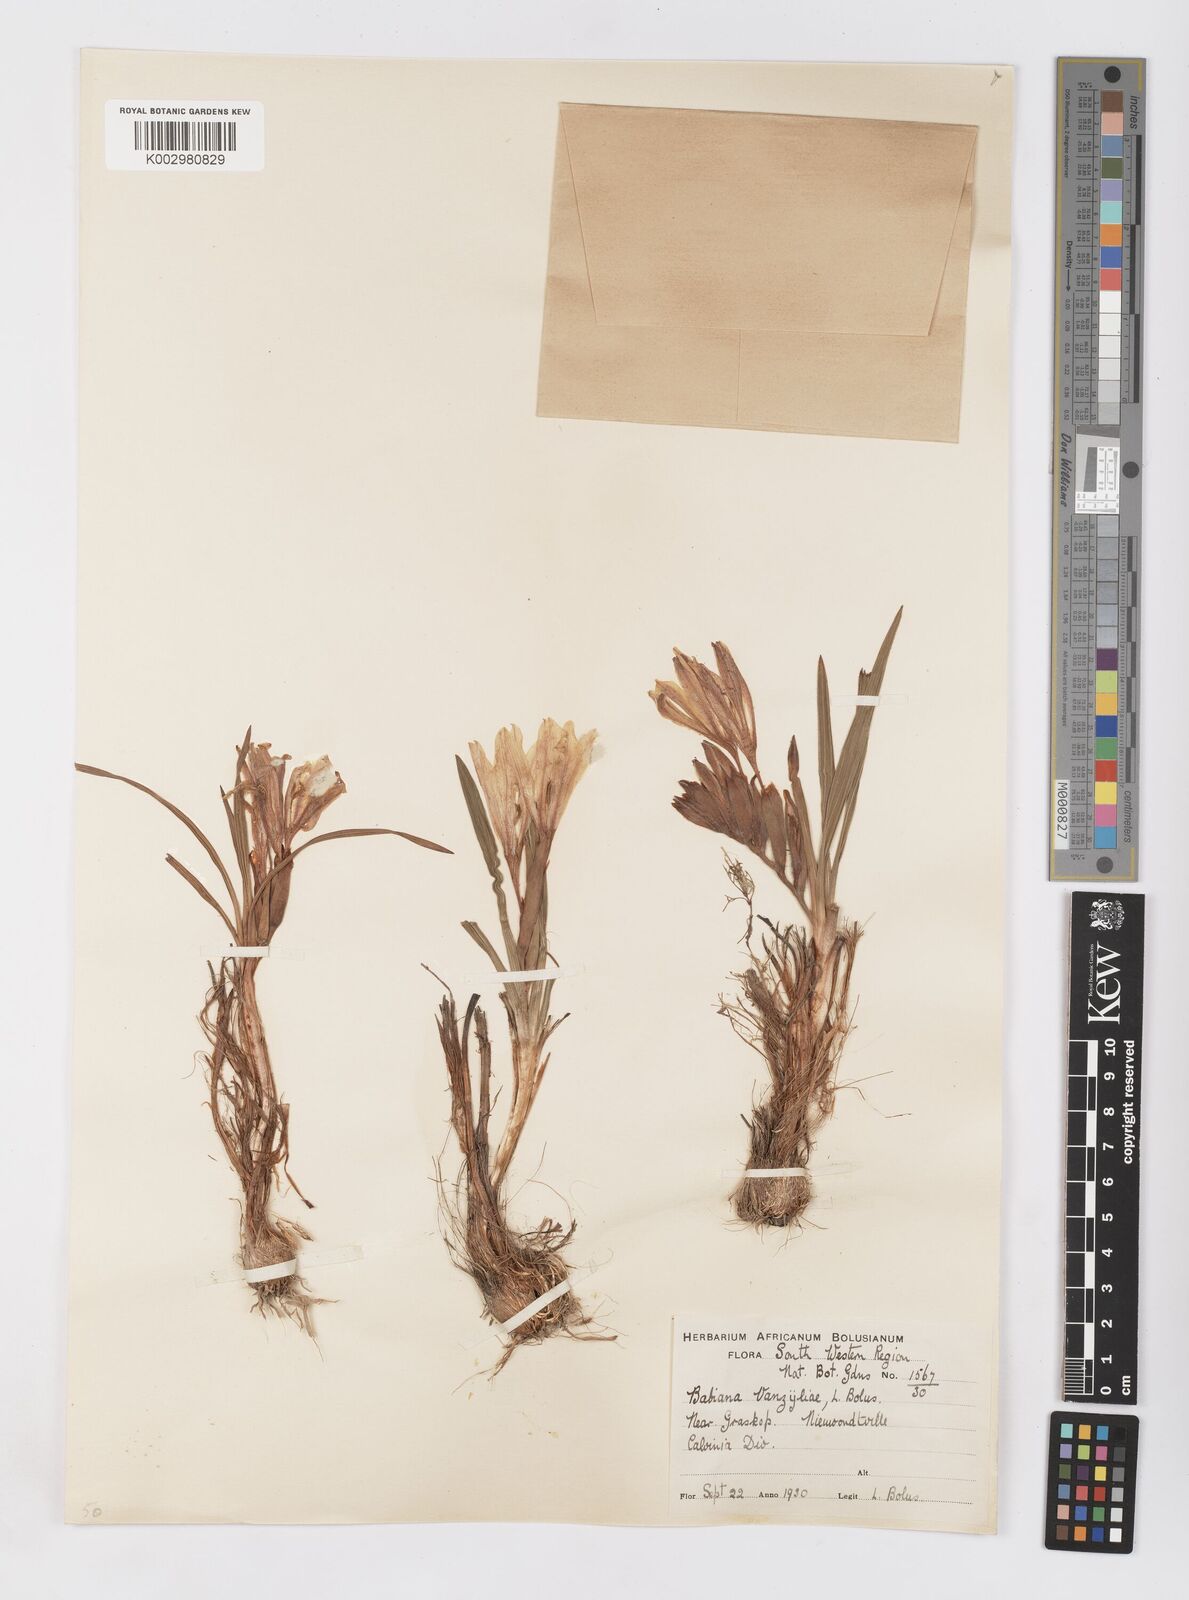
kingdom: Plantae
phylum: Tracheophyta
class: Liliopsida
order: Asparagales
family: Iridaceae
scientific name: Iridaceae
